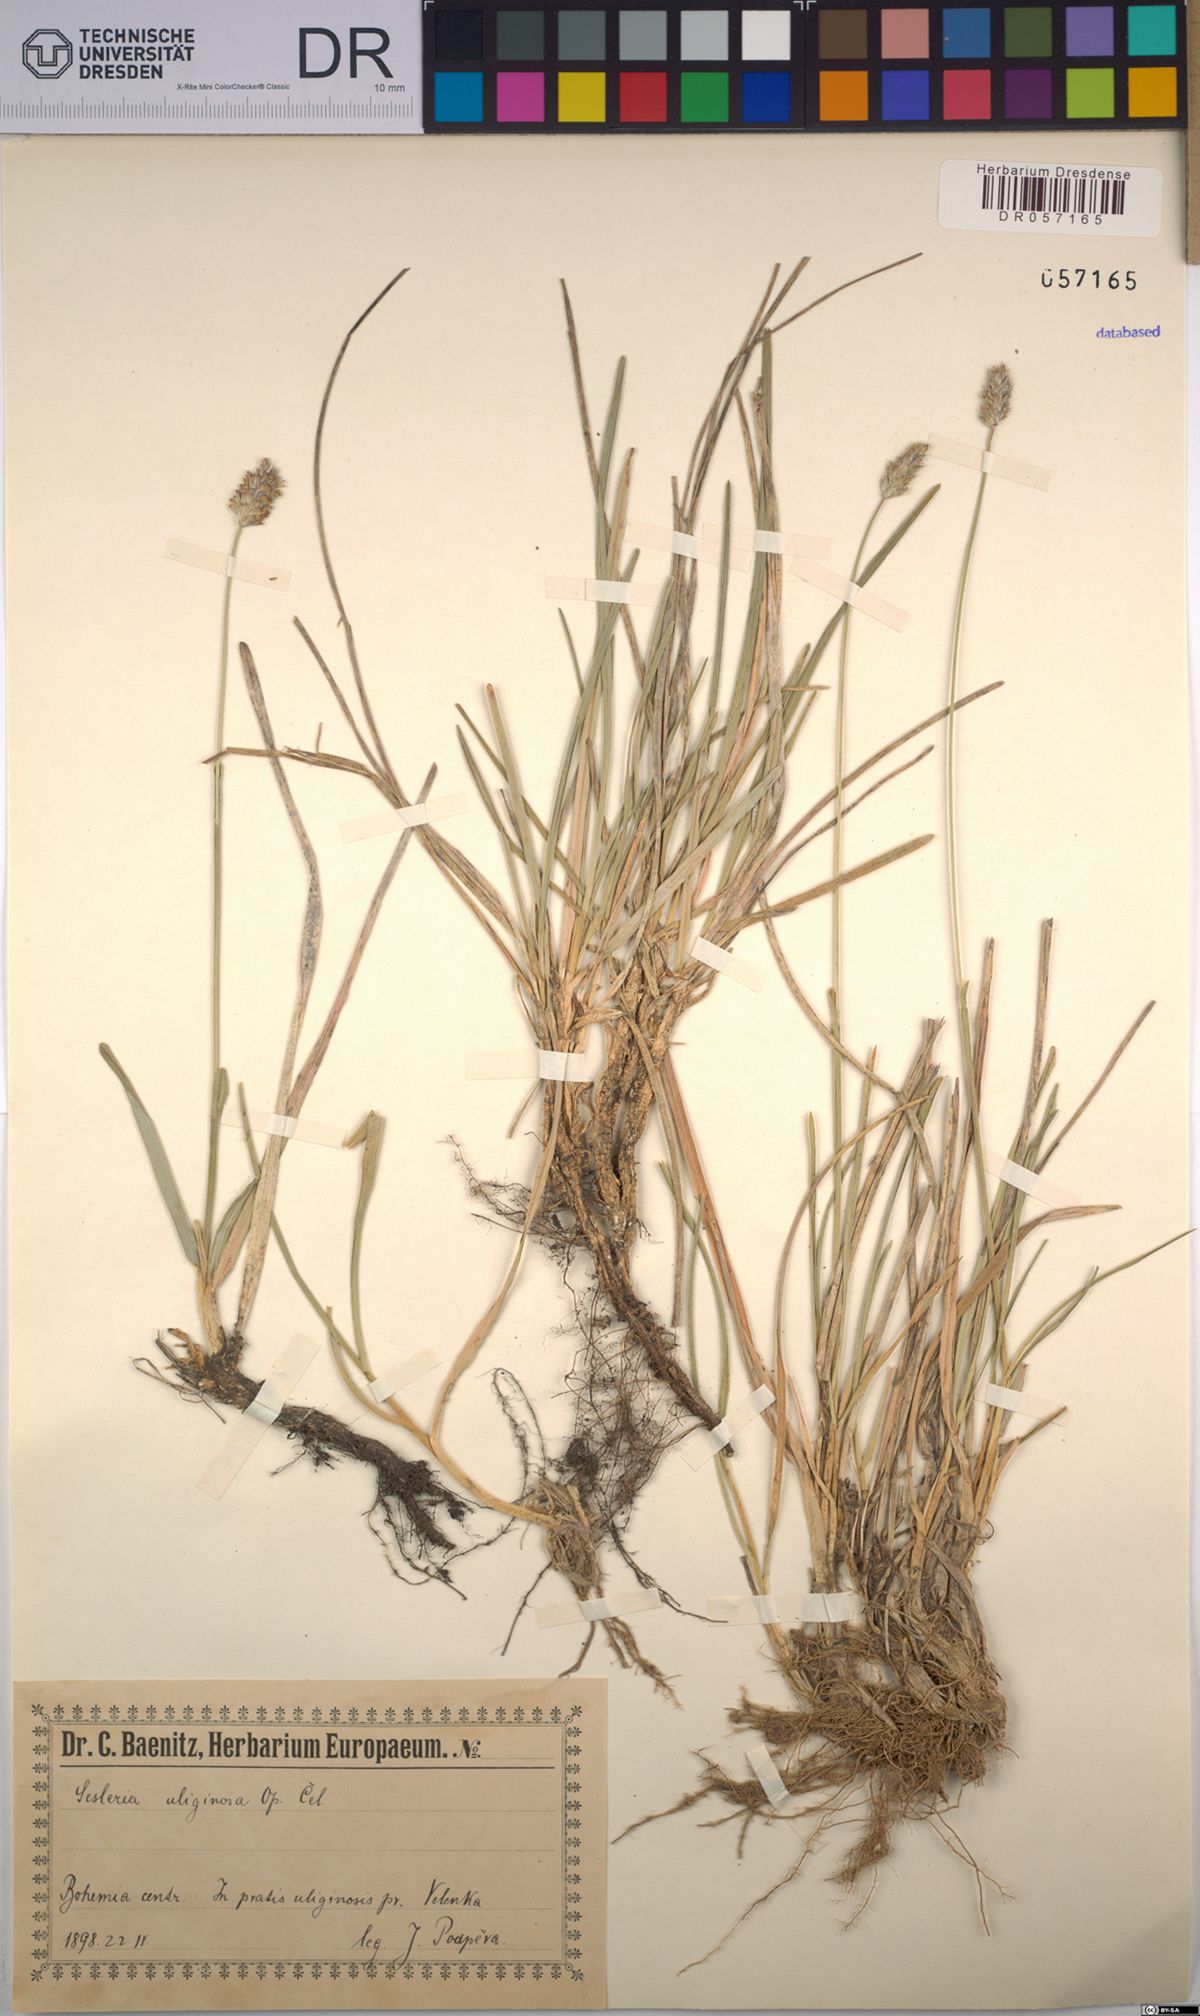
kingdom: Plantae
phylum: Tracheophyta
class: Liliopsida
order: Poales
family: Poaceae
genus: Sesleria
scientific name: Sesleria uliginosa
